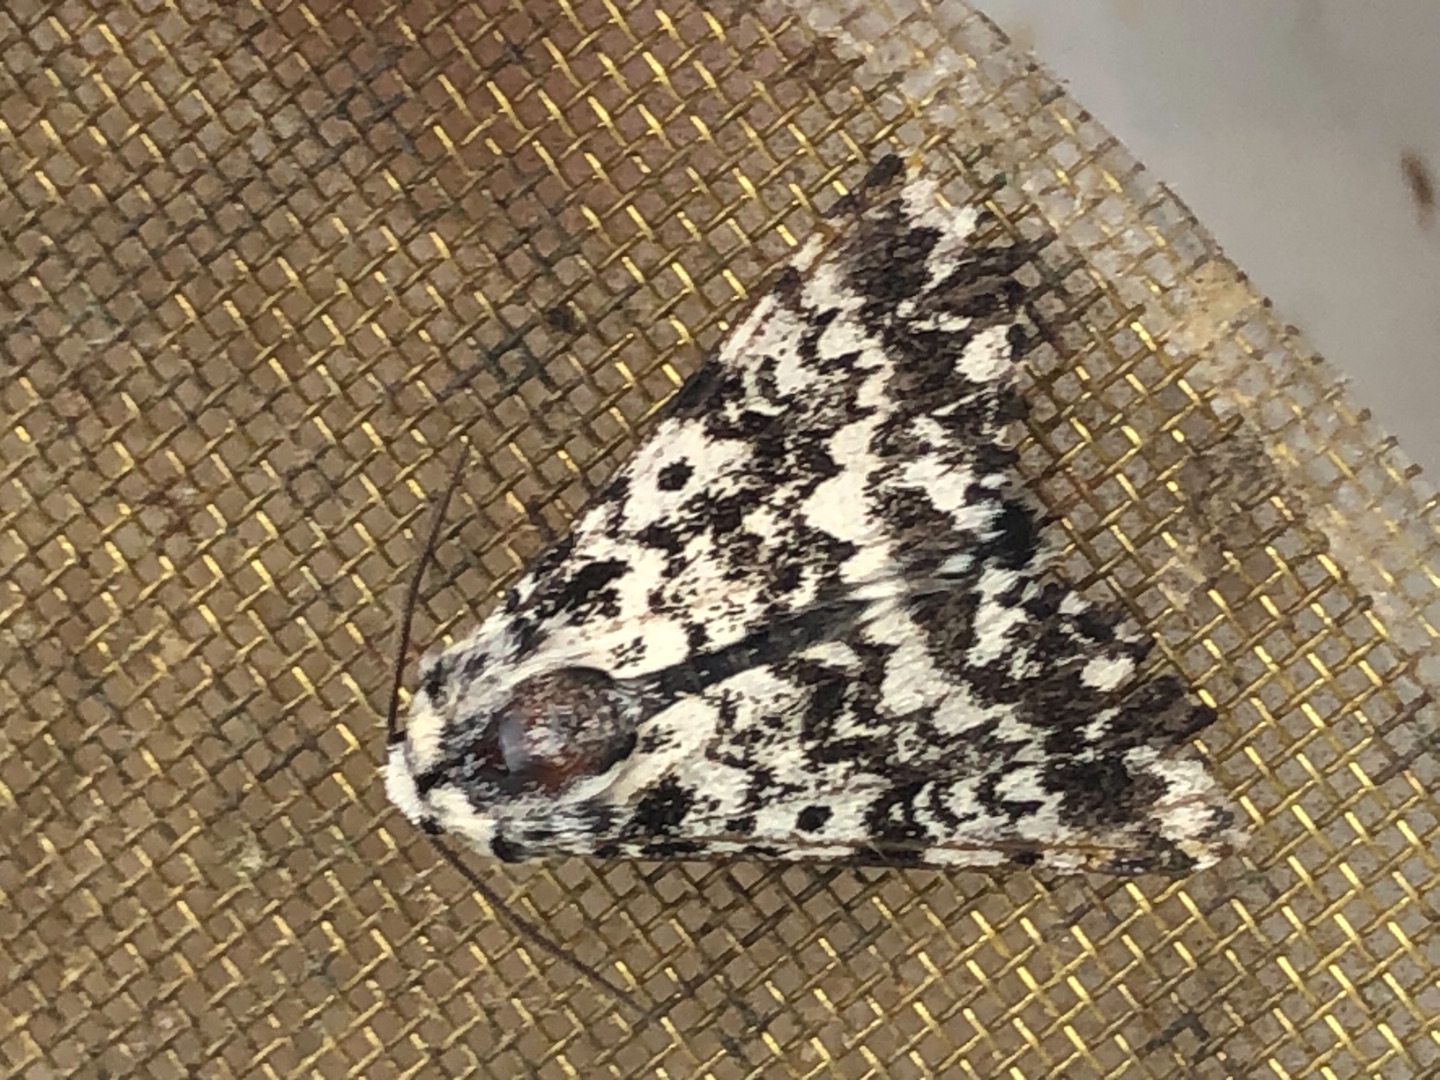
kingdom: Animalia
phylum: Arthropoda
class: Insecta
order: Lepidoptera
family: Noctuidae
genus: Panthea
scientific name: Panthea coenobita
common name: Nonneugle
